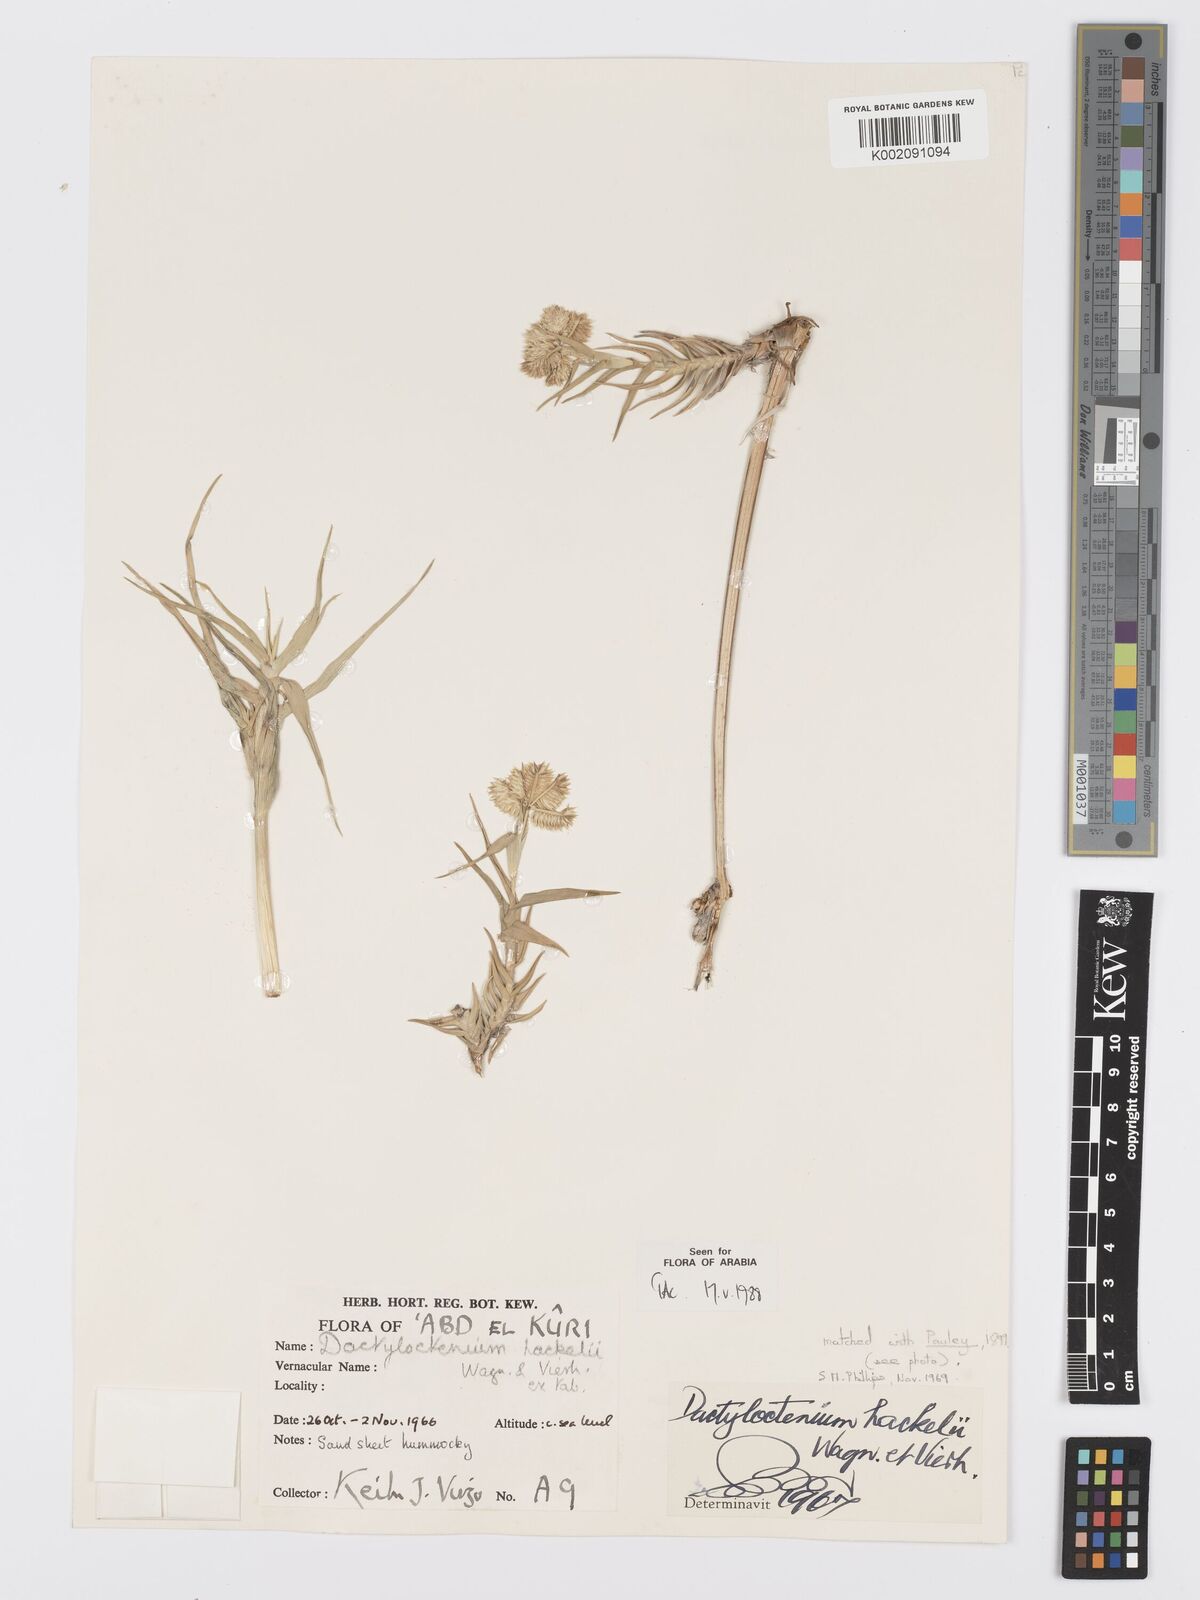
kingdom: Plantae
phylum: Tracheophyta
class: Liliopsida
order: Poales
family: Poaceae
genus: Dactyloctenium
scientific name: Dactyloctenium hackelii
